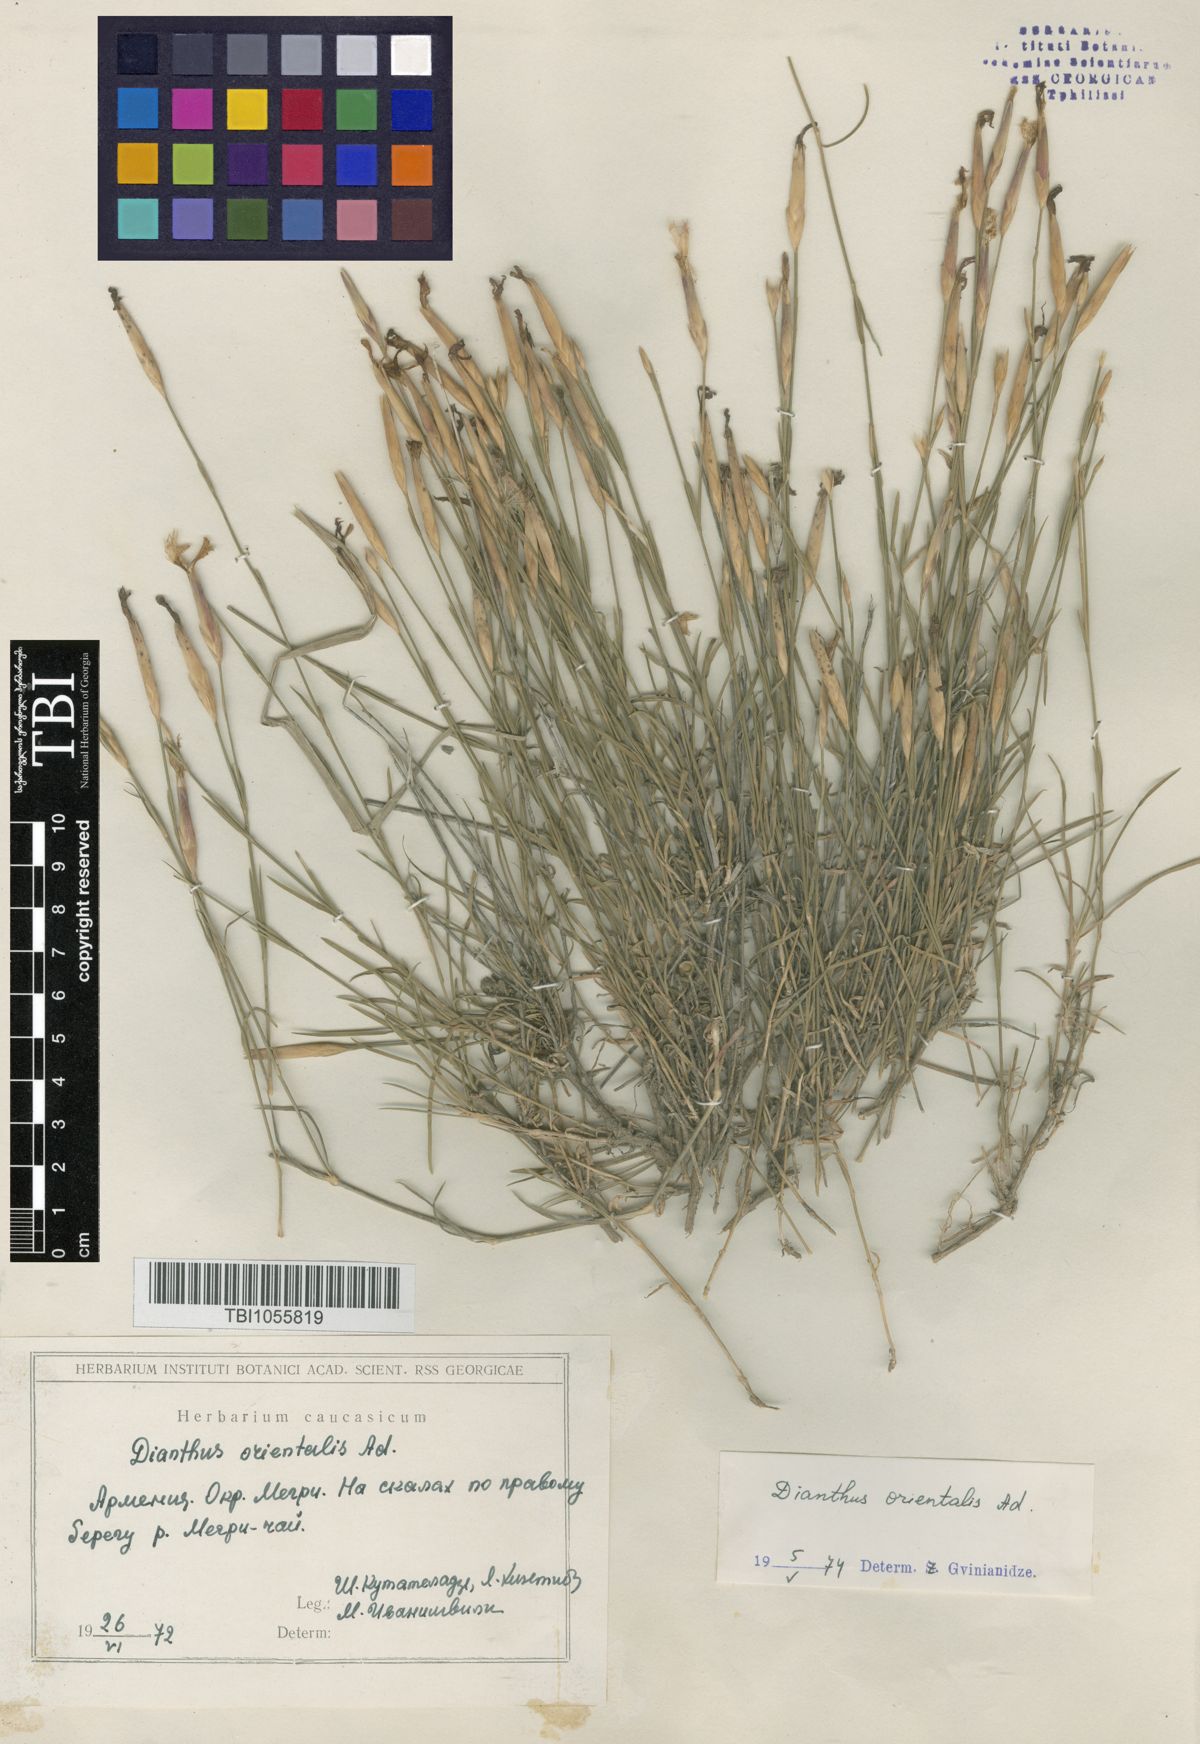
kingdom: Plantae
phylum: Tracheophyta
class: Magnoliopsida
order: Caryophyllales
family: Caryophyllaceae
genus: Dianthus
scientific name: Dianthus orientalis
